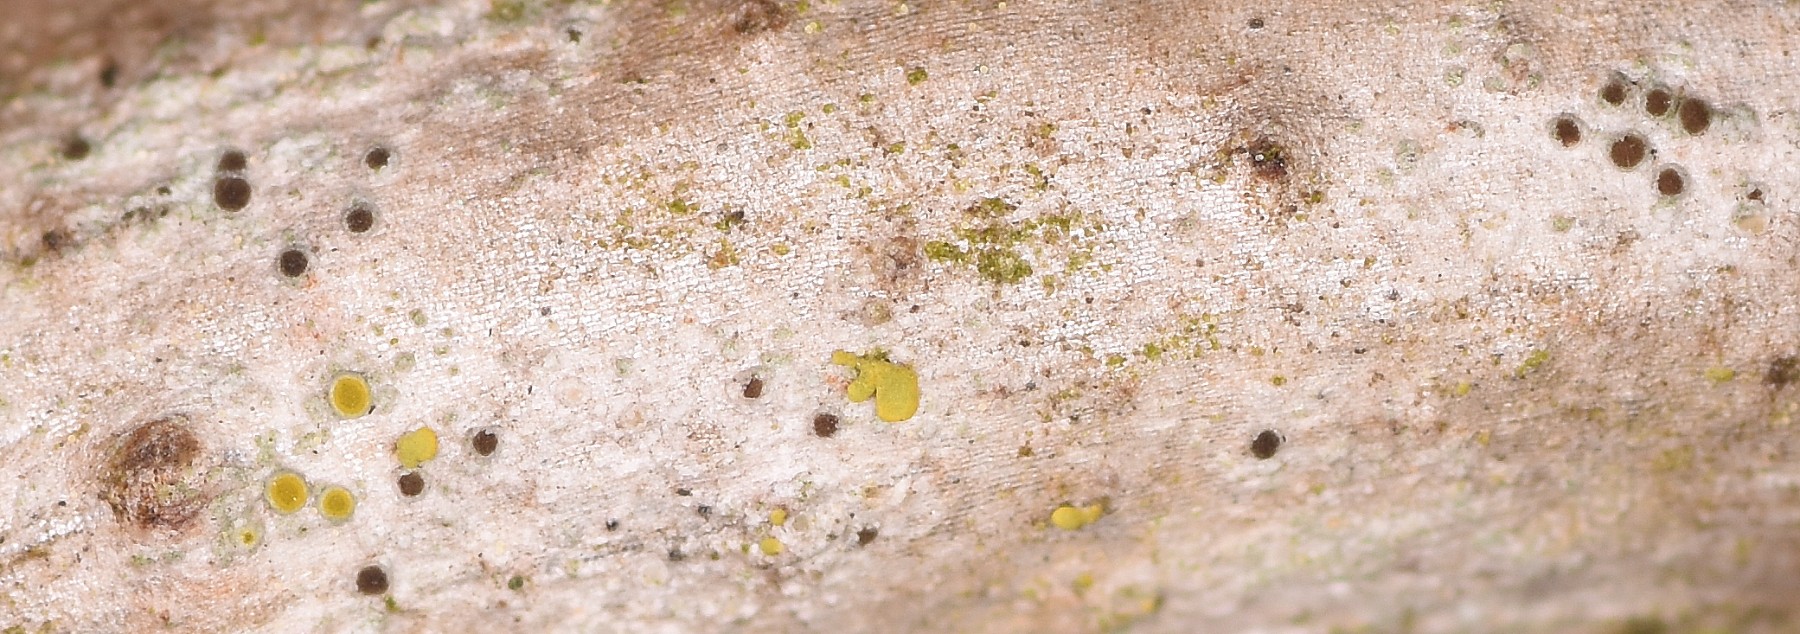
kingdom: Fungi
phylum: Ascomycota
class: Lecanoromycetes
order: Lecanorales
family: Ramalinaceae
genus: Lecania
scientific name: Lecania cyrtella
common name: hylde-lecania
